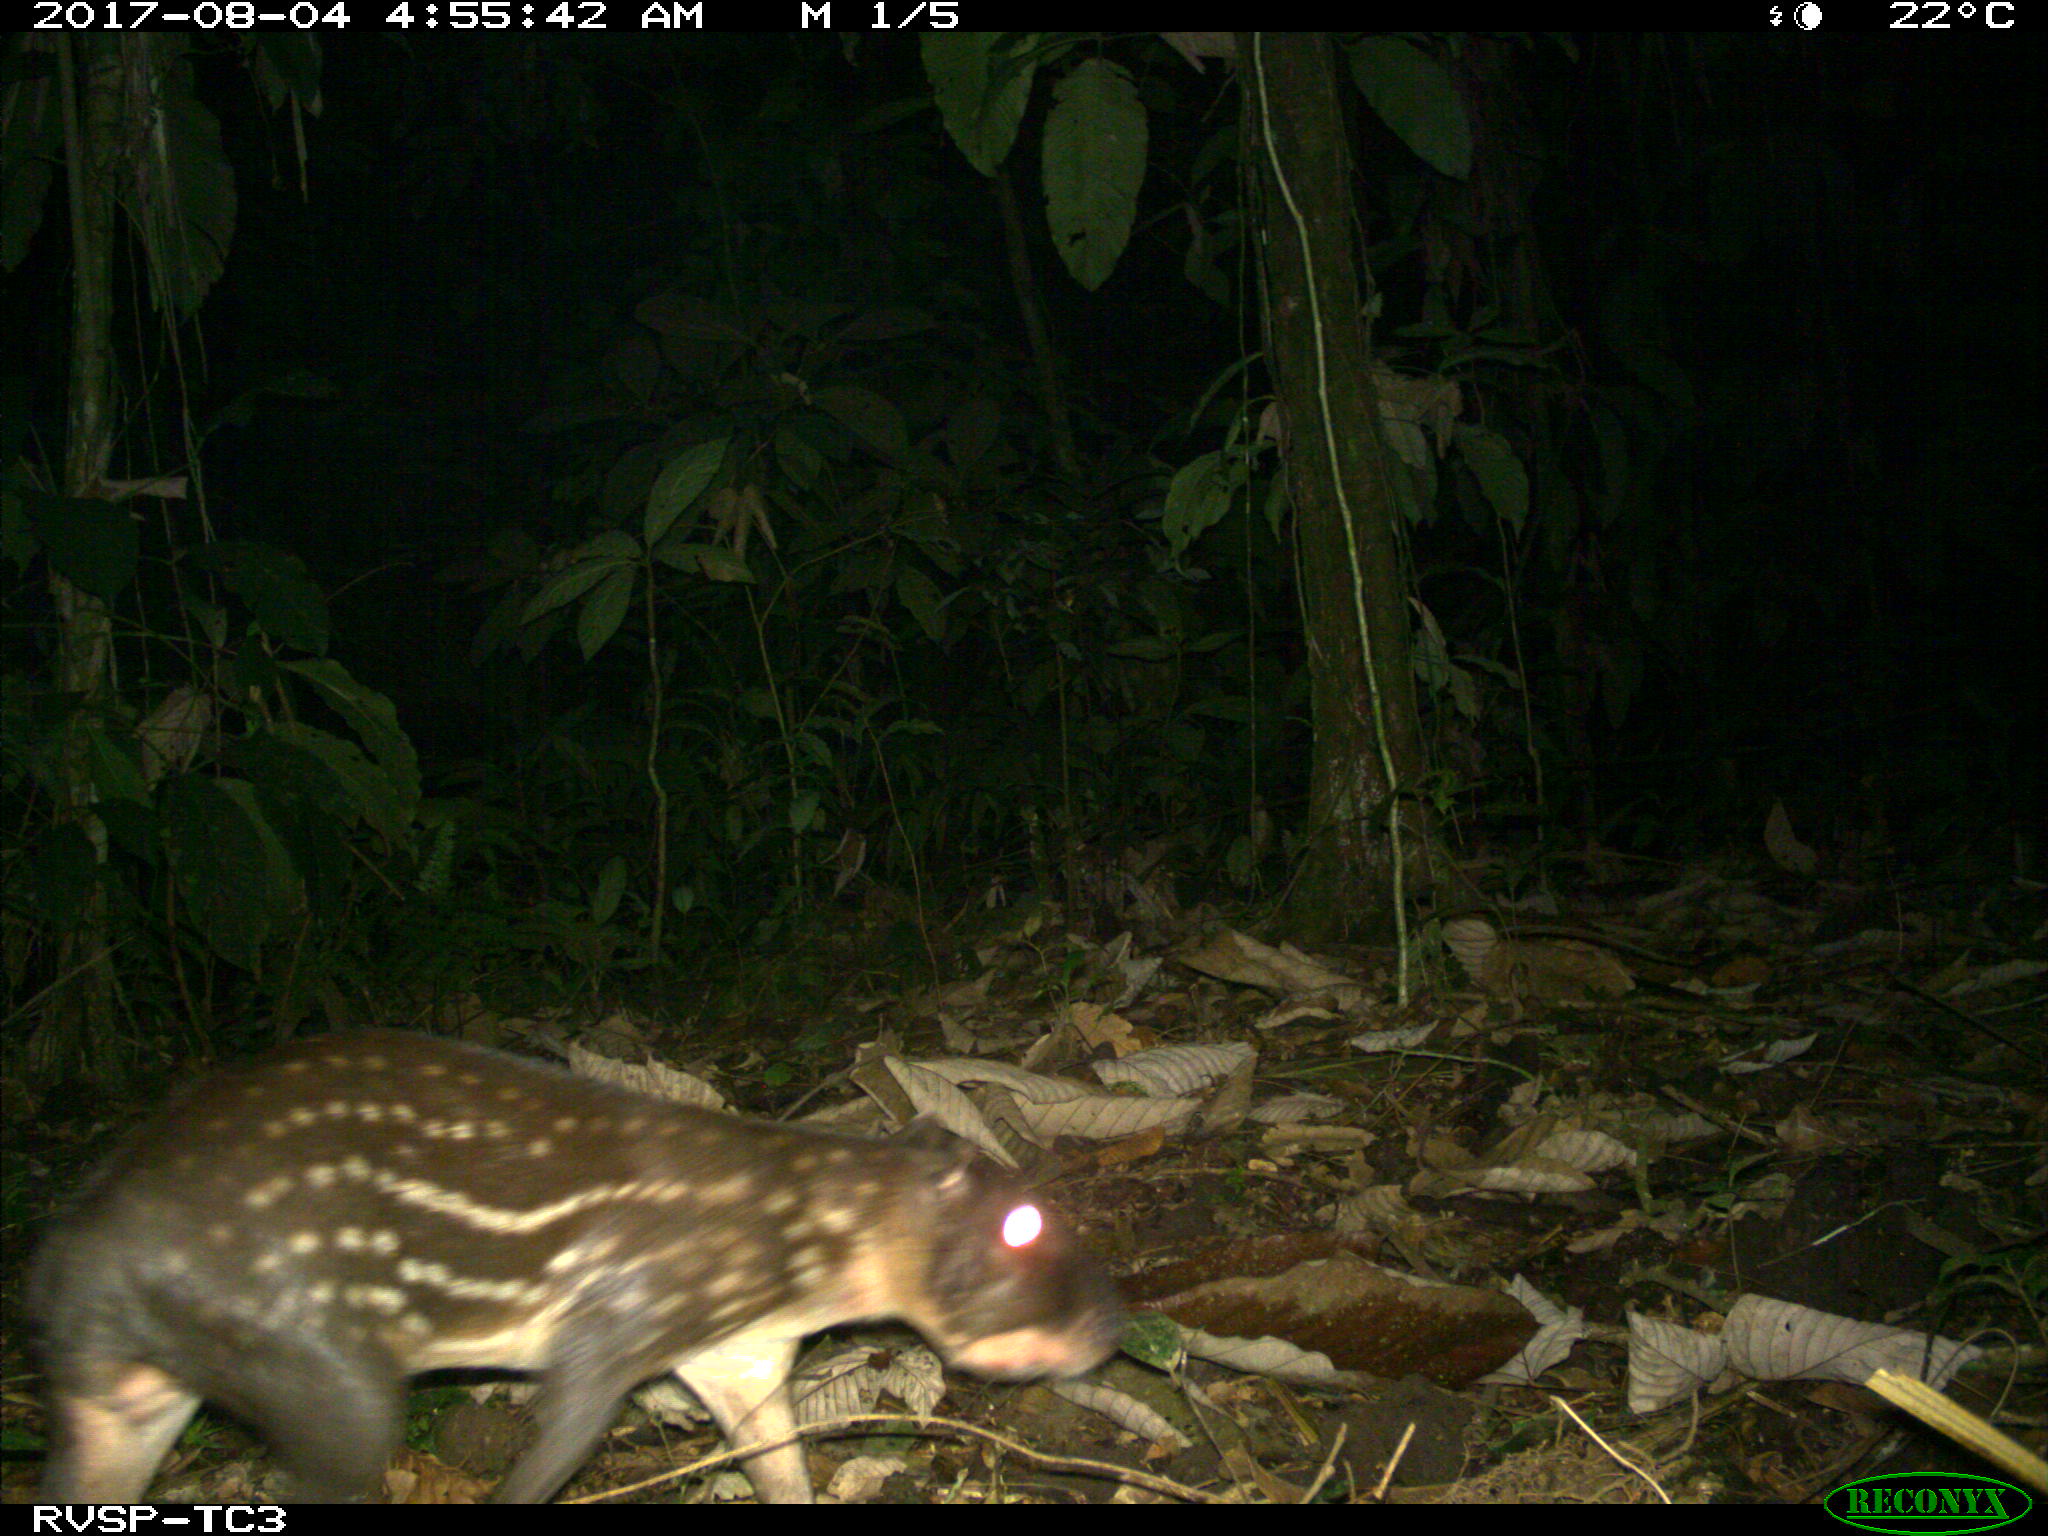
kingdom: Animalia
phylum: Chordata
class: Mammalia
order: Rodentia
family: Cuniculidae
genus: Cuniculus
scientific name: Cuniculus paca
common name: Lowland paca
